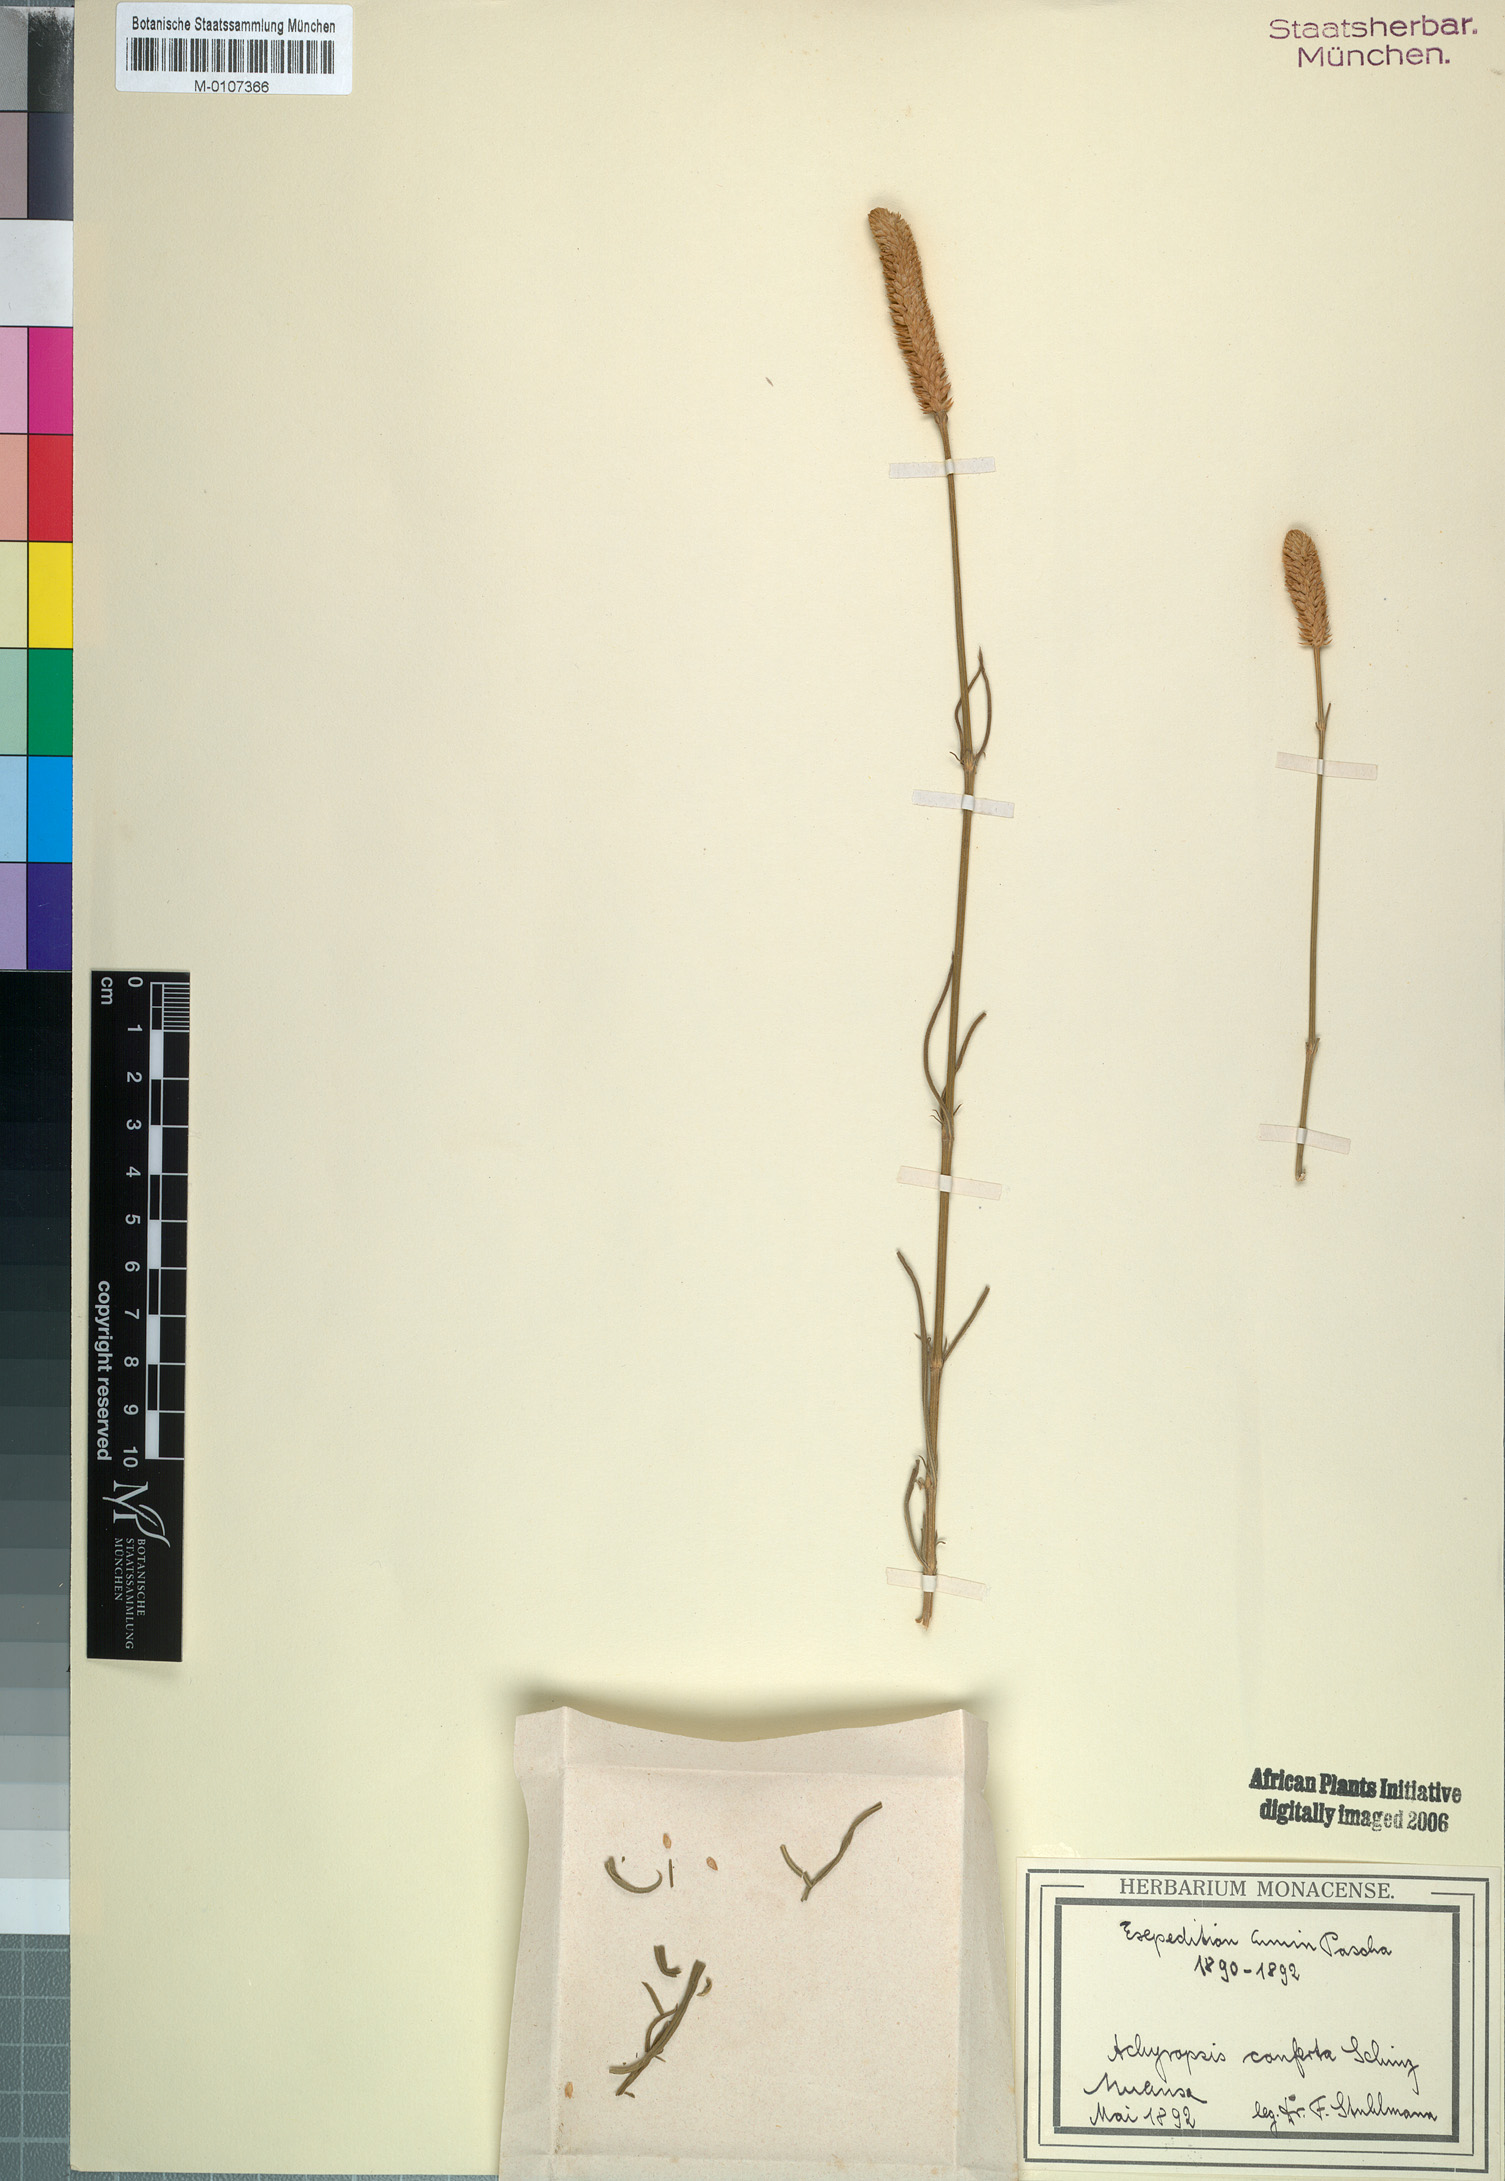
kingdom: Plantae
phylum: Tracheophyta
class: Magnoliopsida
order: Caryophyllales
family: Amaranthaceae
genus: Centemopsis
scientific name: Centemopsis conferta
